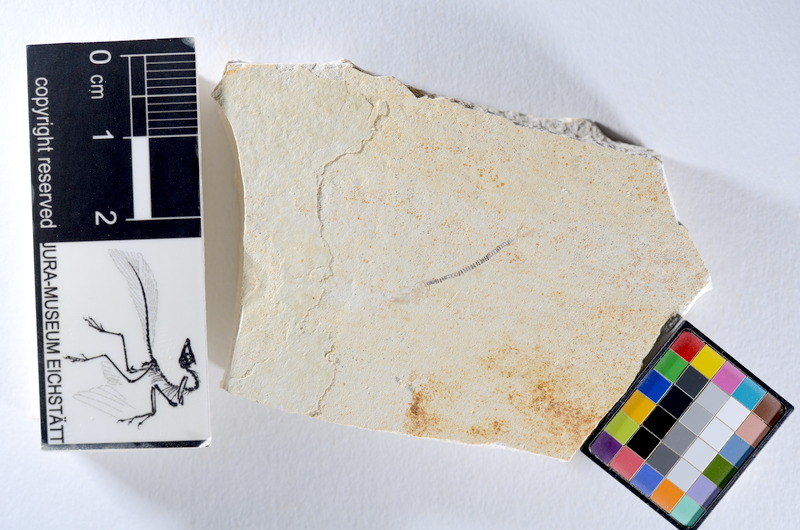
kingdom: Animalia
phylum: Chordata
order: Salmoniformes
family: Orthogonikleithridae
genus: Orthogonikleithrus
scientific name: Orthogonikleithrus hoelli
